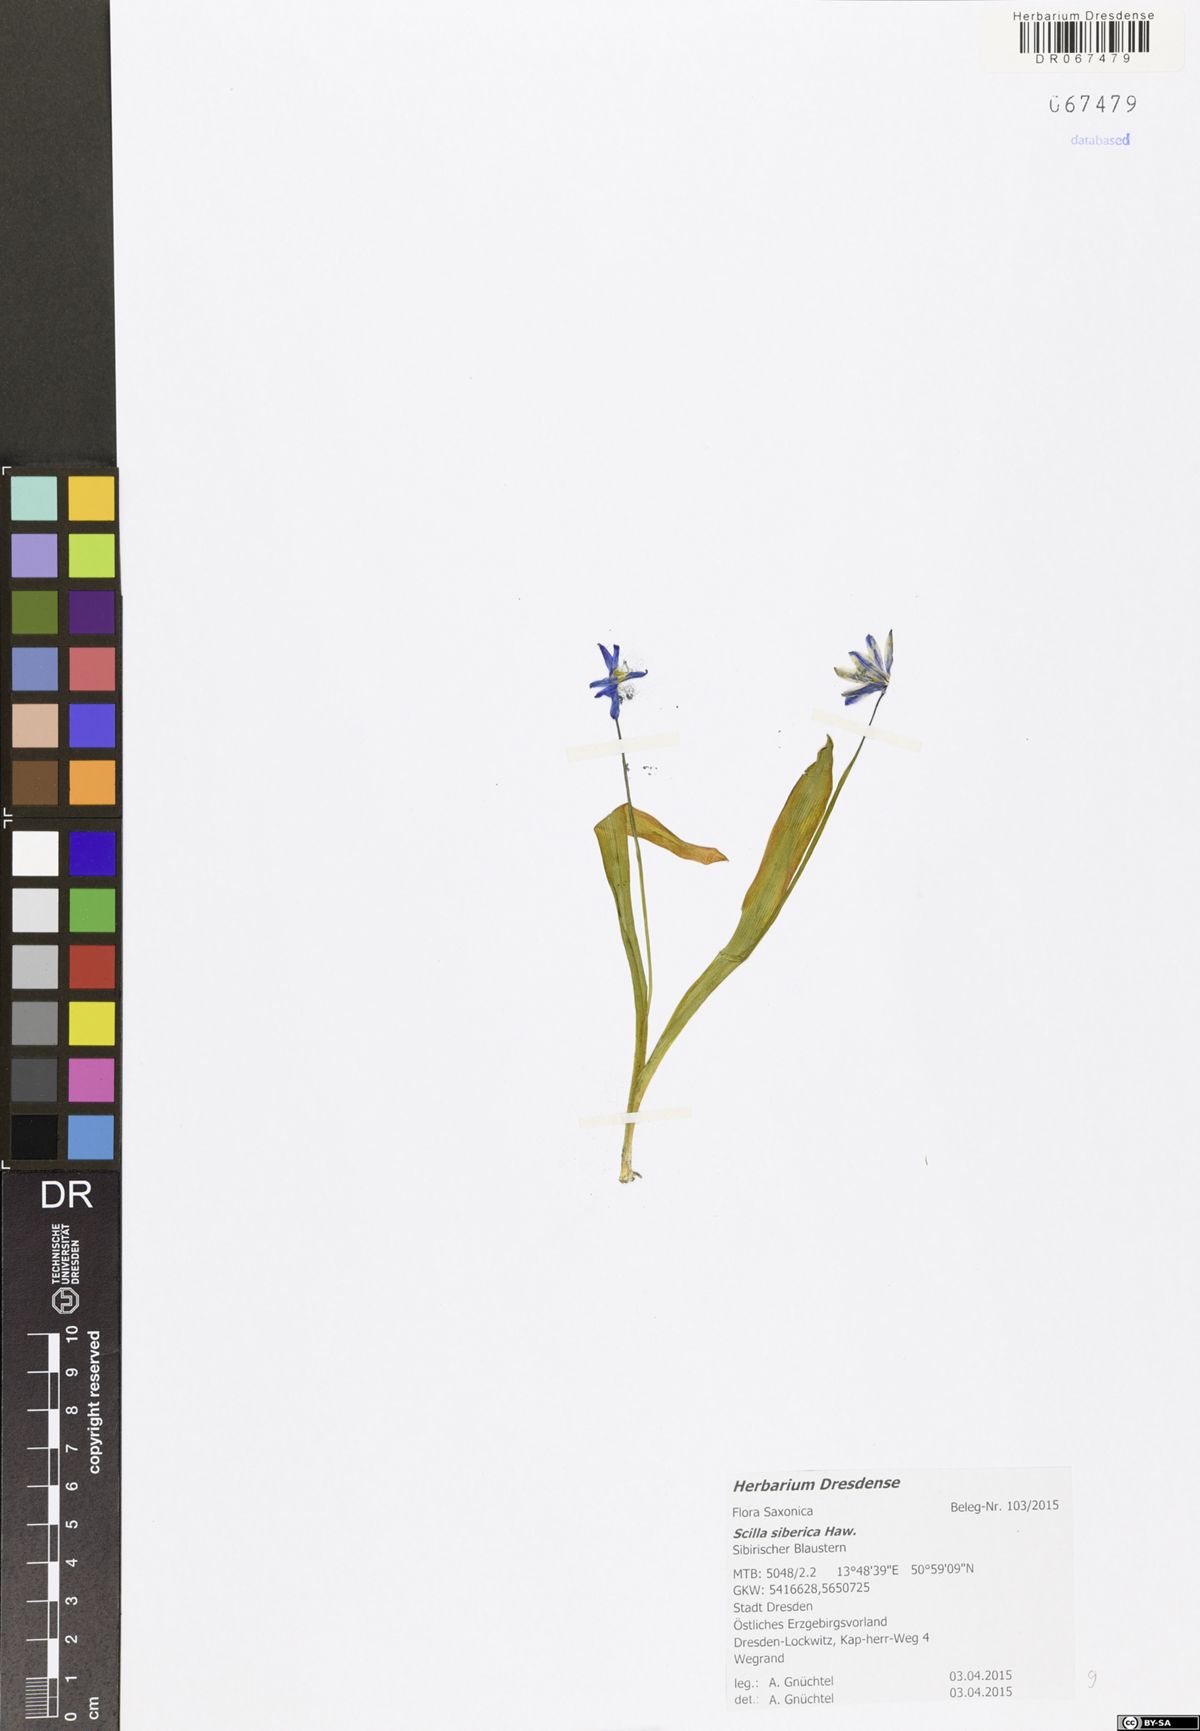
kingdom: Plantae
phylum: Tracheophyta
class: Liliopsida
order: Asparagales
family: Asparagaceae
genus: Scilla
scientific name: Scilla siberica
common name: Siberian squill
